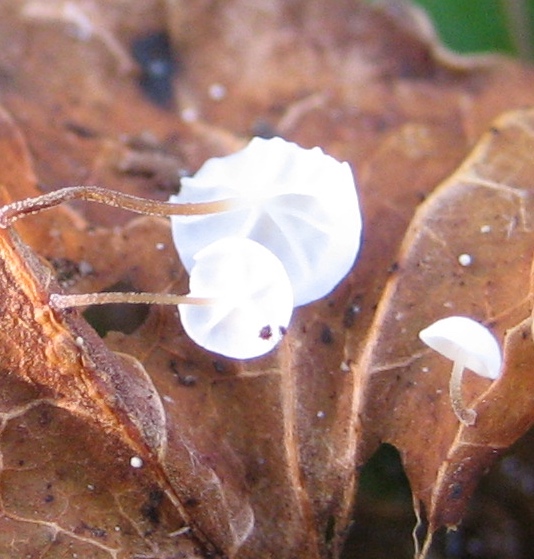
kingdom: Fungi
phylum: Basidiomycota
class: Agaricomycetes
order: Agaricales
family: Marasmiaceae
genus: Marasmius
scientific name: Marasmius epiphylloides
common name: vedbend-bruskhat
